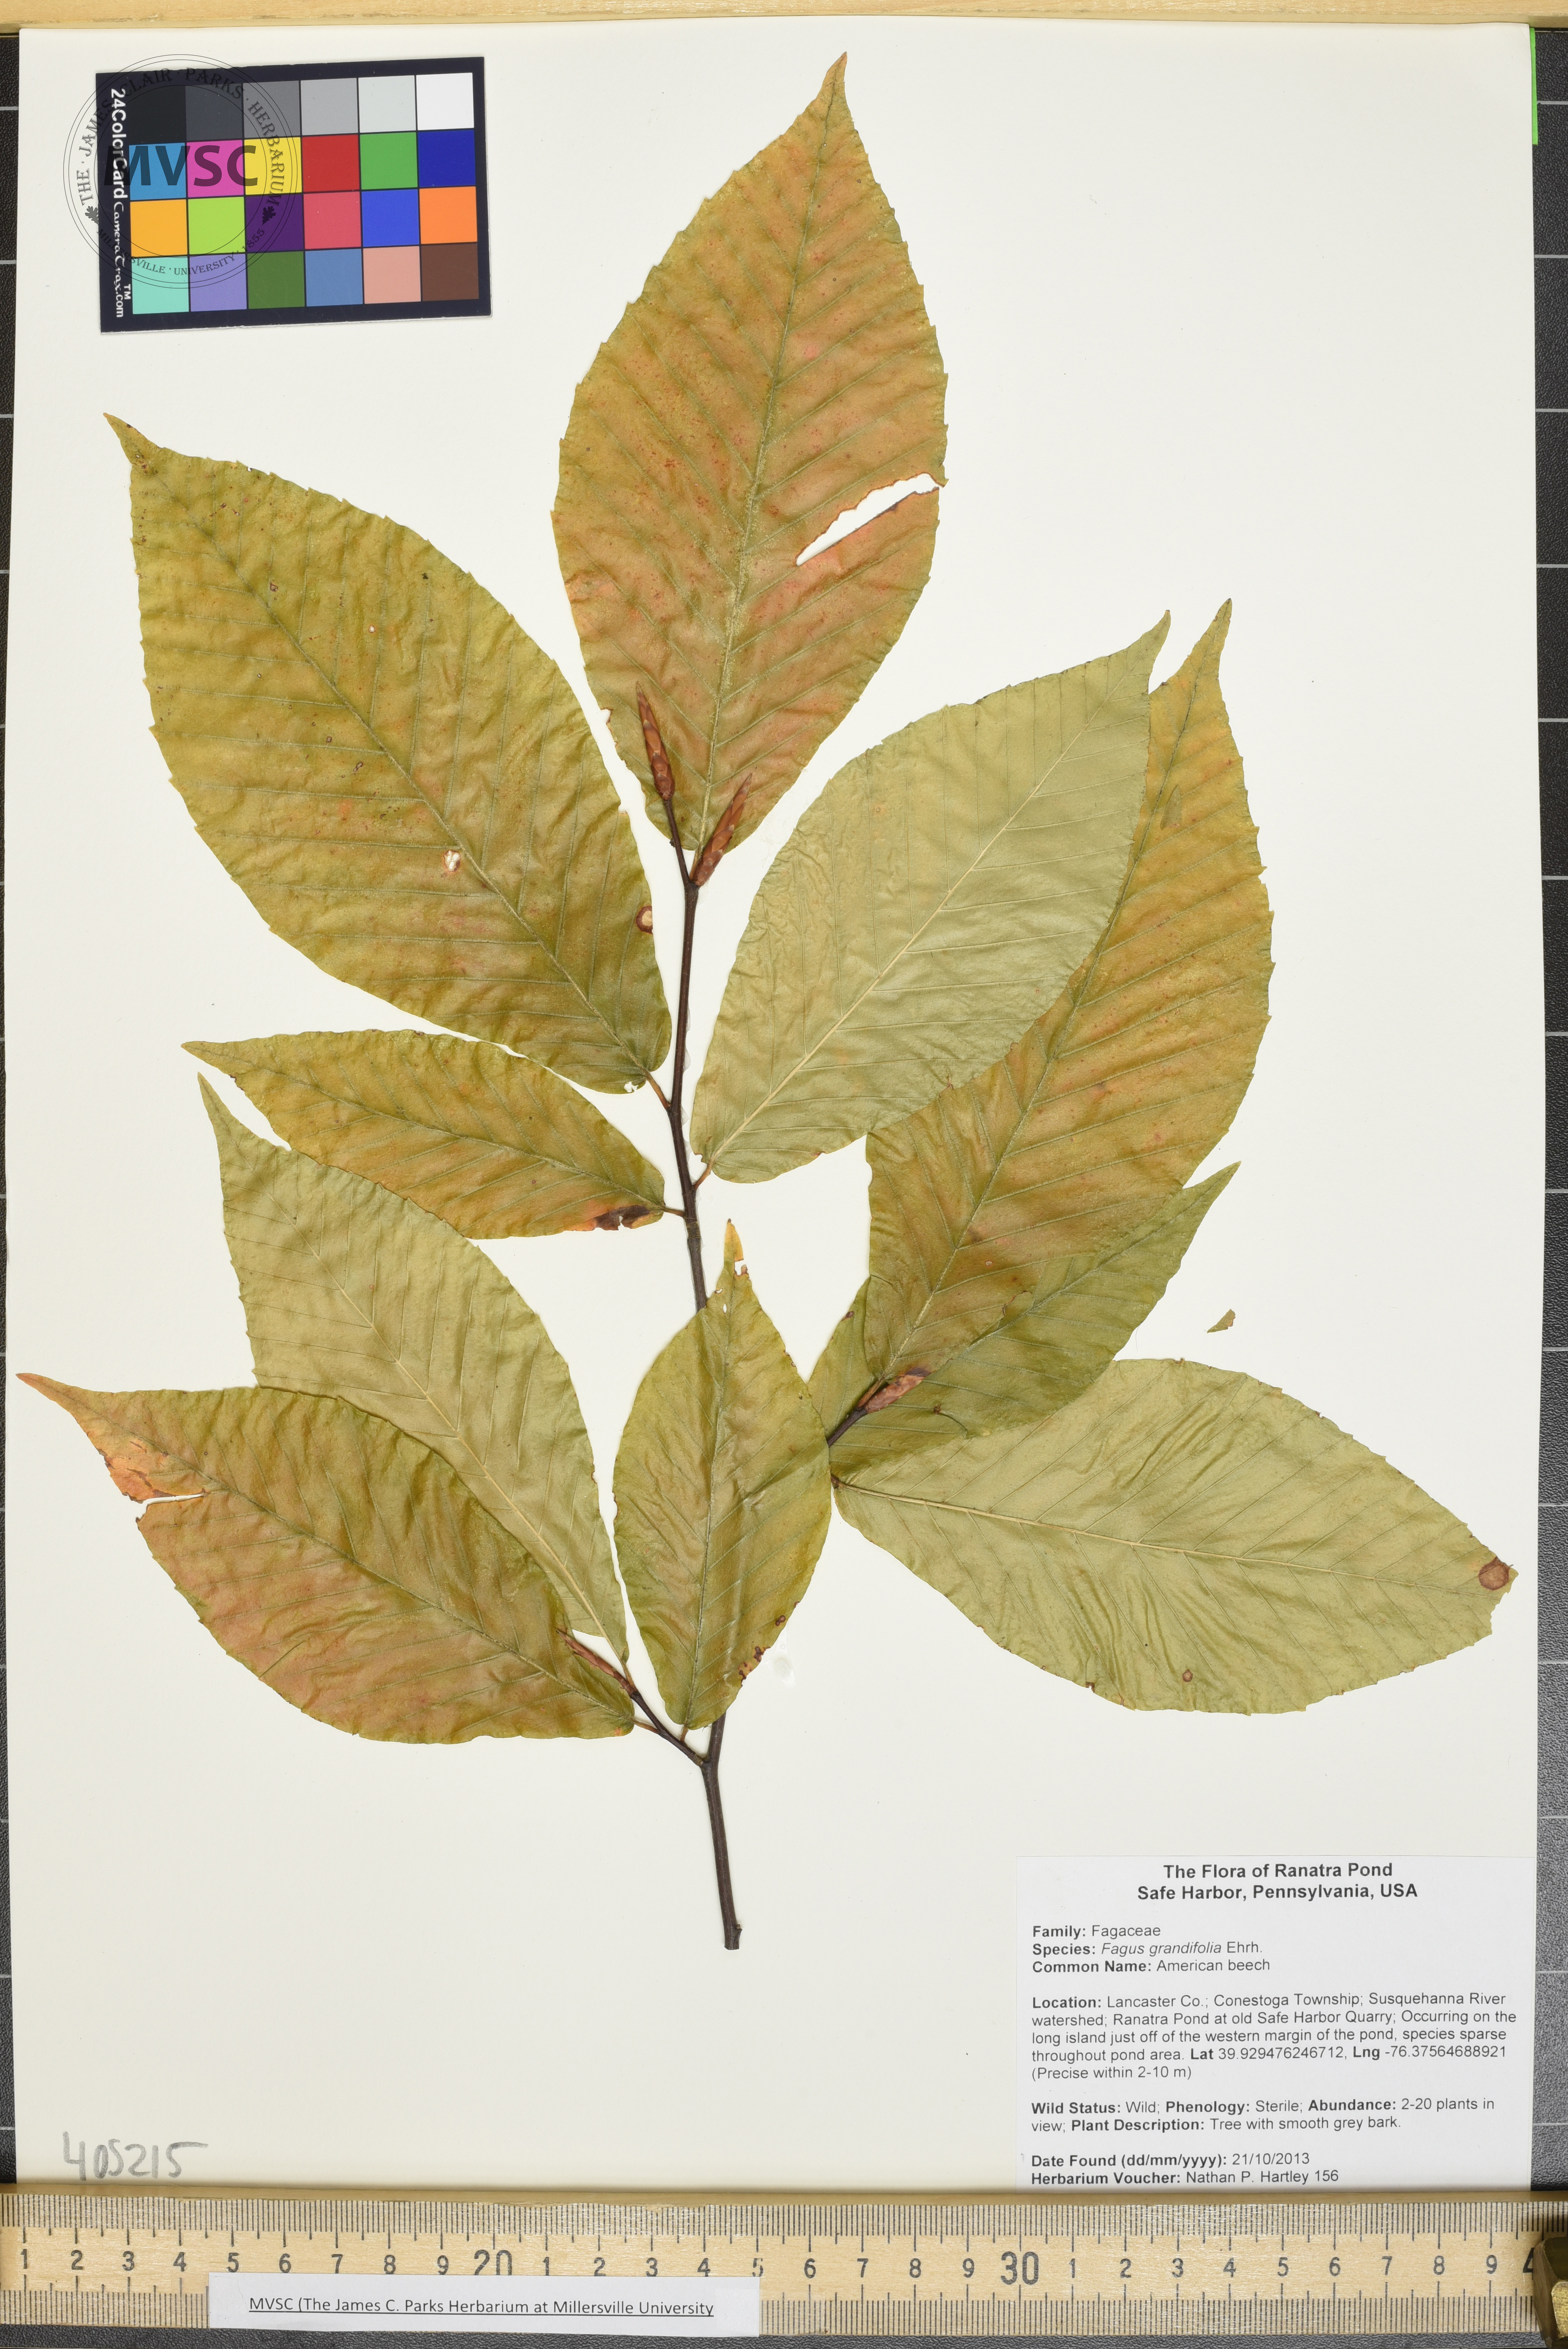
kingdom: Plantae
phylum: Tracheophyta
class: Magnoliopsida
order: Fagales
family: Fagaceae
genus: Fagus
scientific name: Fagus grandifolia
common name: American beech
